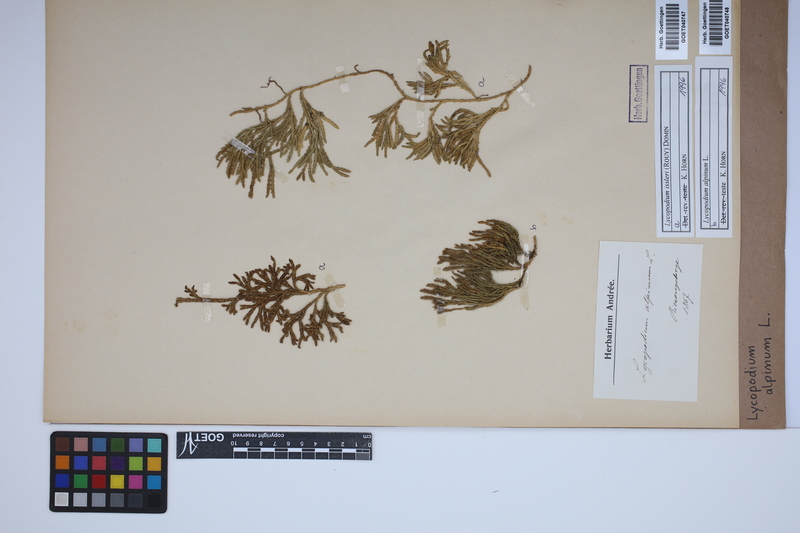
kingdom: Plantae
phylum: Tracheophyta
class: Lycopodiopsida
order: Lycopodiales
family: Lycopodiaceae
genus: Diphasiastrum
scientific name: Diphasiastrum issleri
